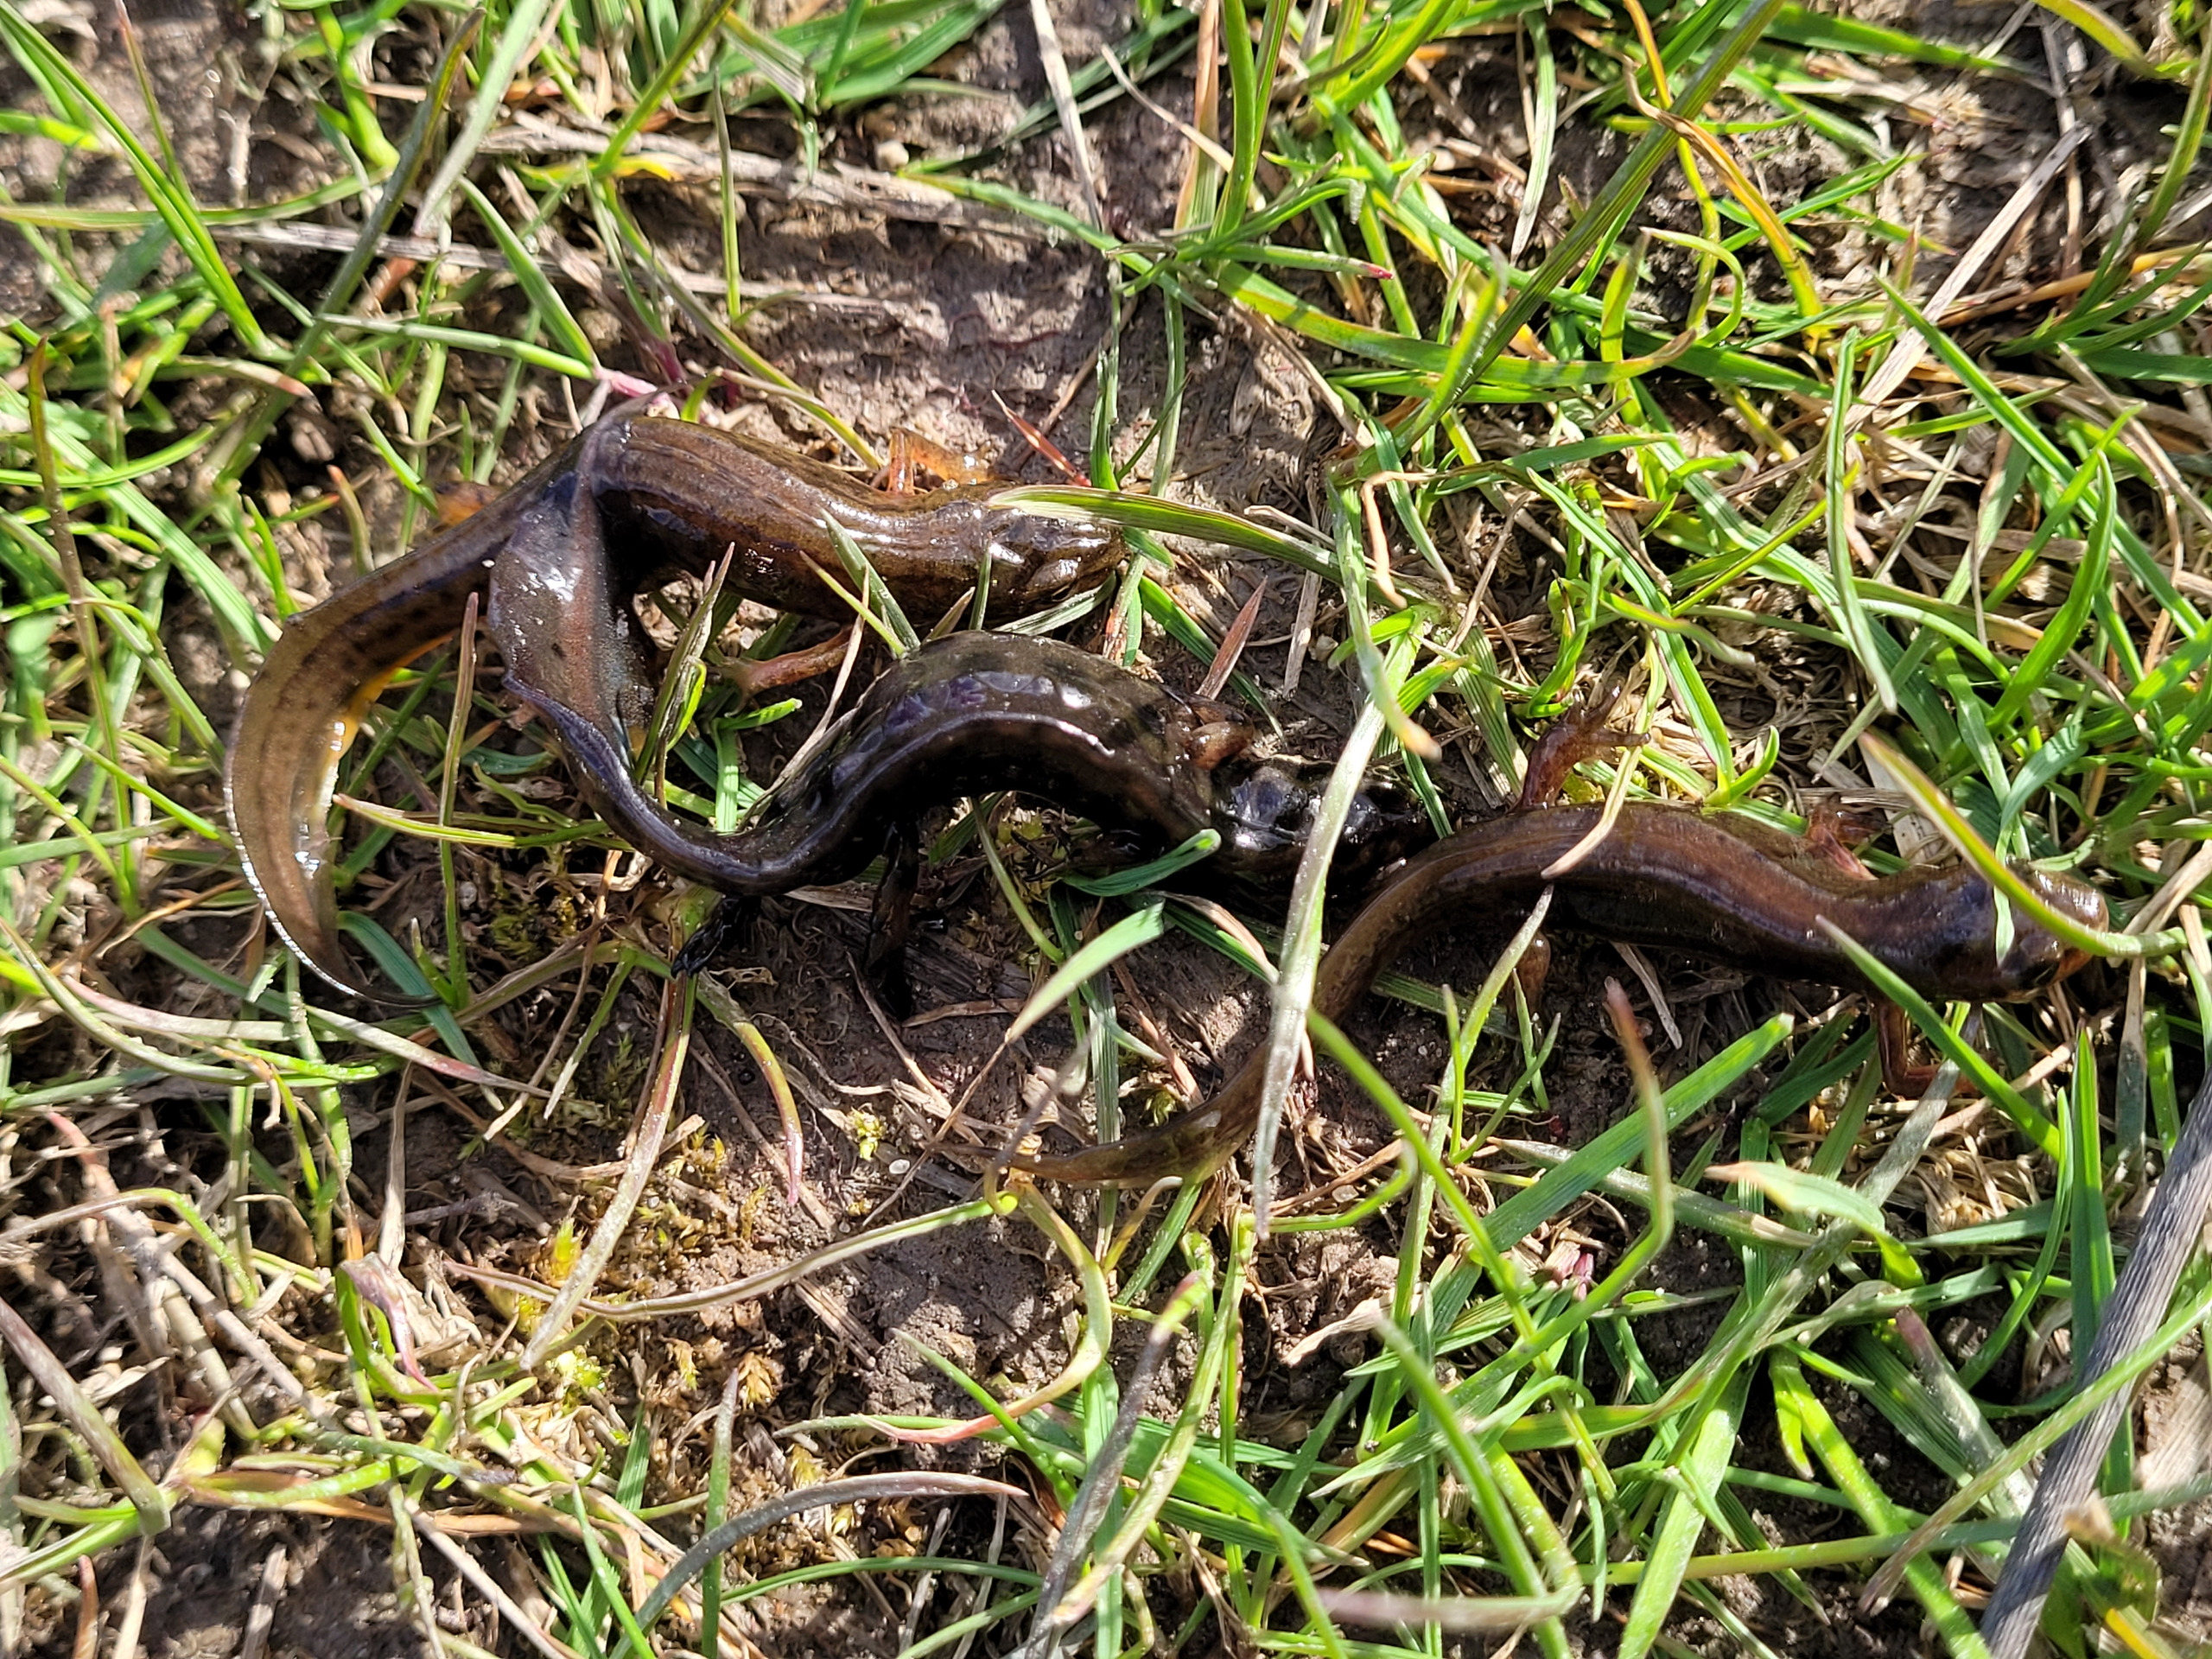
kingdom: Animalia
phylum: Chordata
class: Amphibia
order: Caudata
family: Salamandridae
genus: Lissotriton
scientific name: Lissotriton vulgaris
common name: Lille vandsalamander
